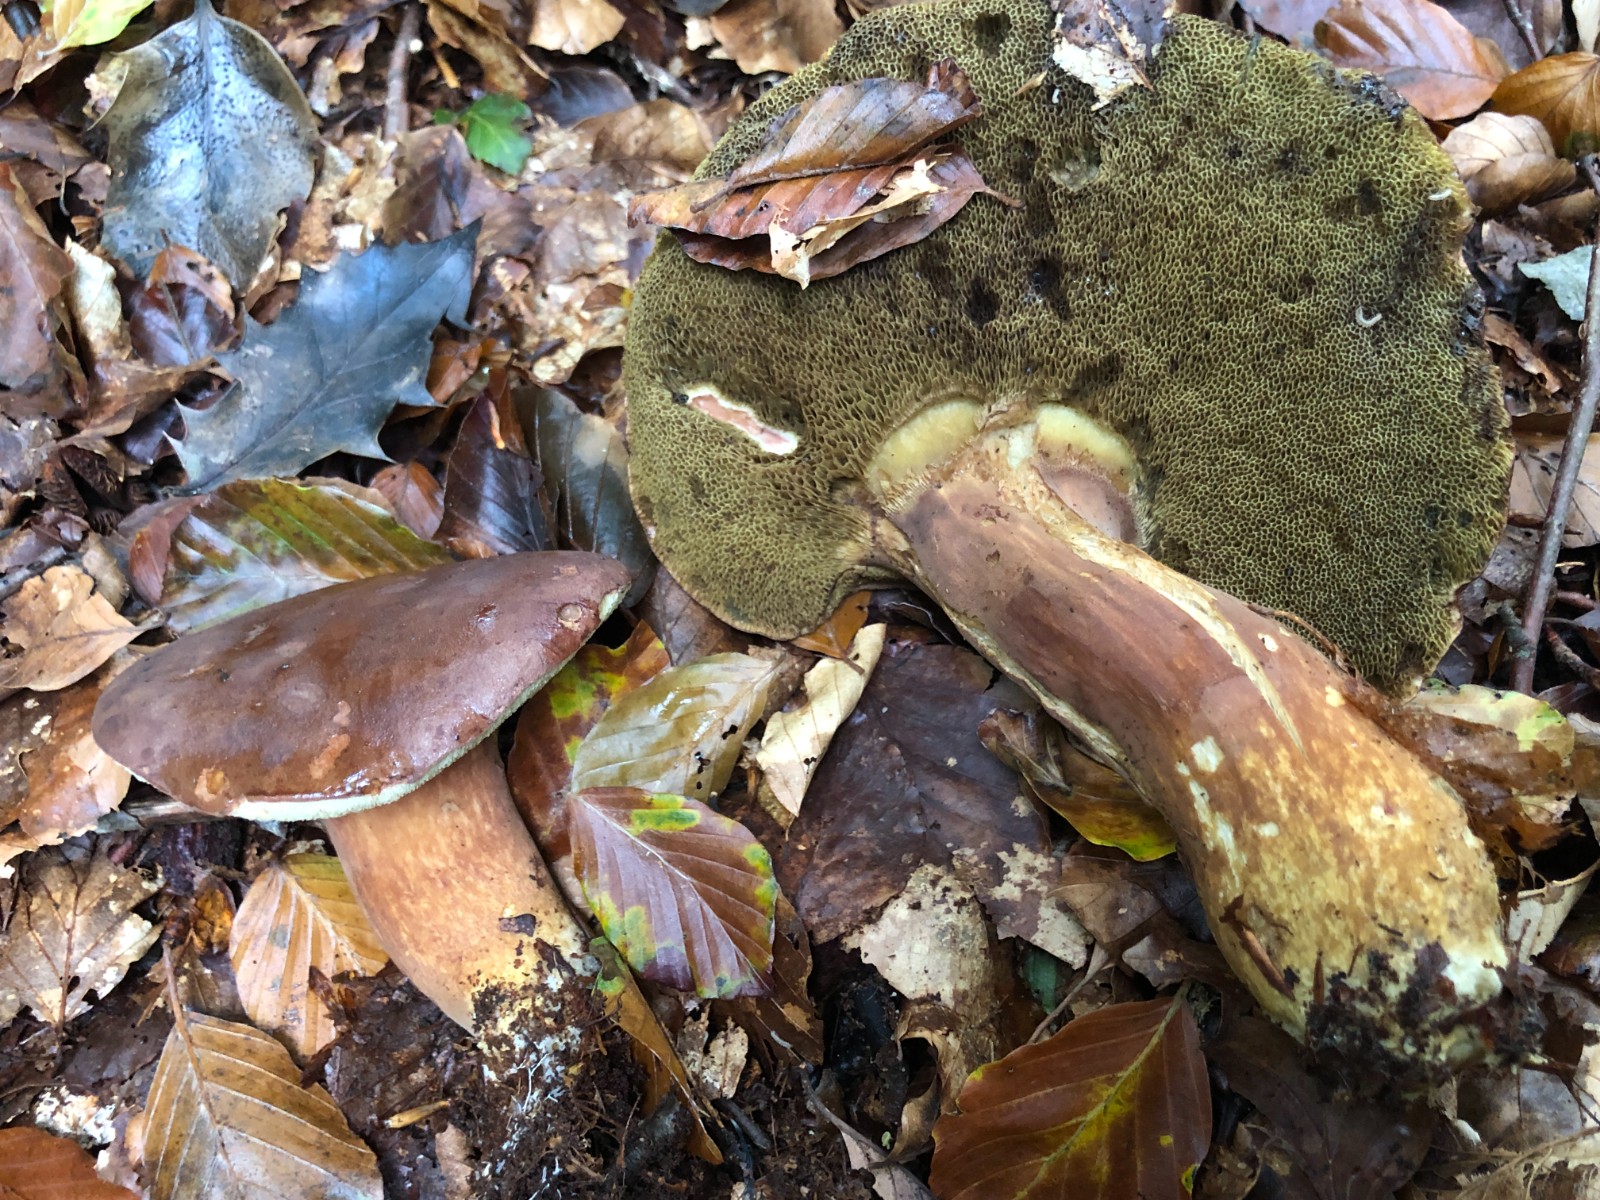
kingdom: Fungi
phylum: Basidiomycota
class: Agaricomycetes
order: Boletales
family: Boletaceae
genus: Imleria
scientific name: Imleria badia
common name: brunstokket rørhat
